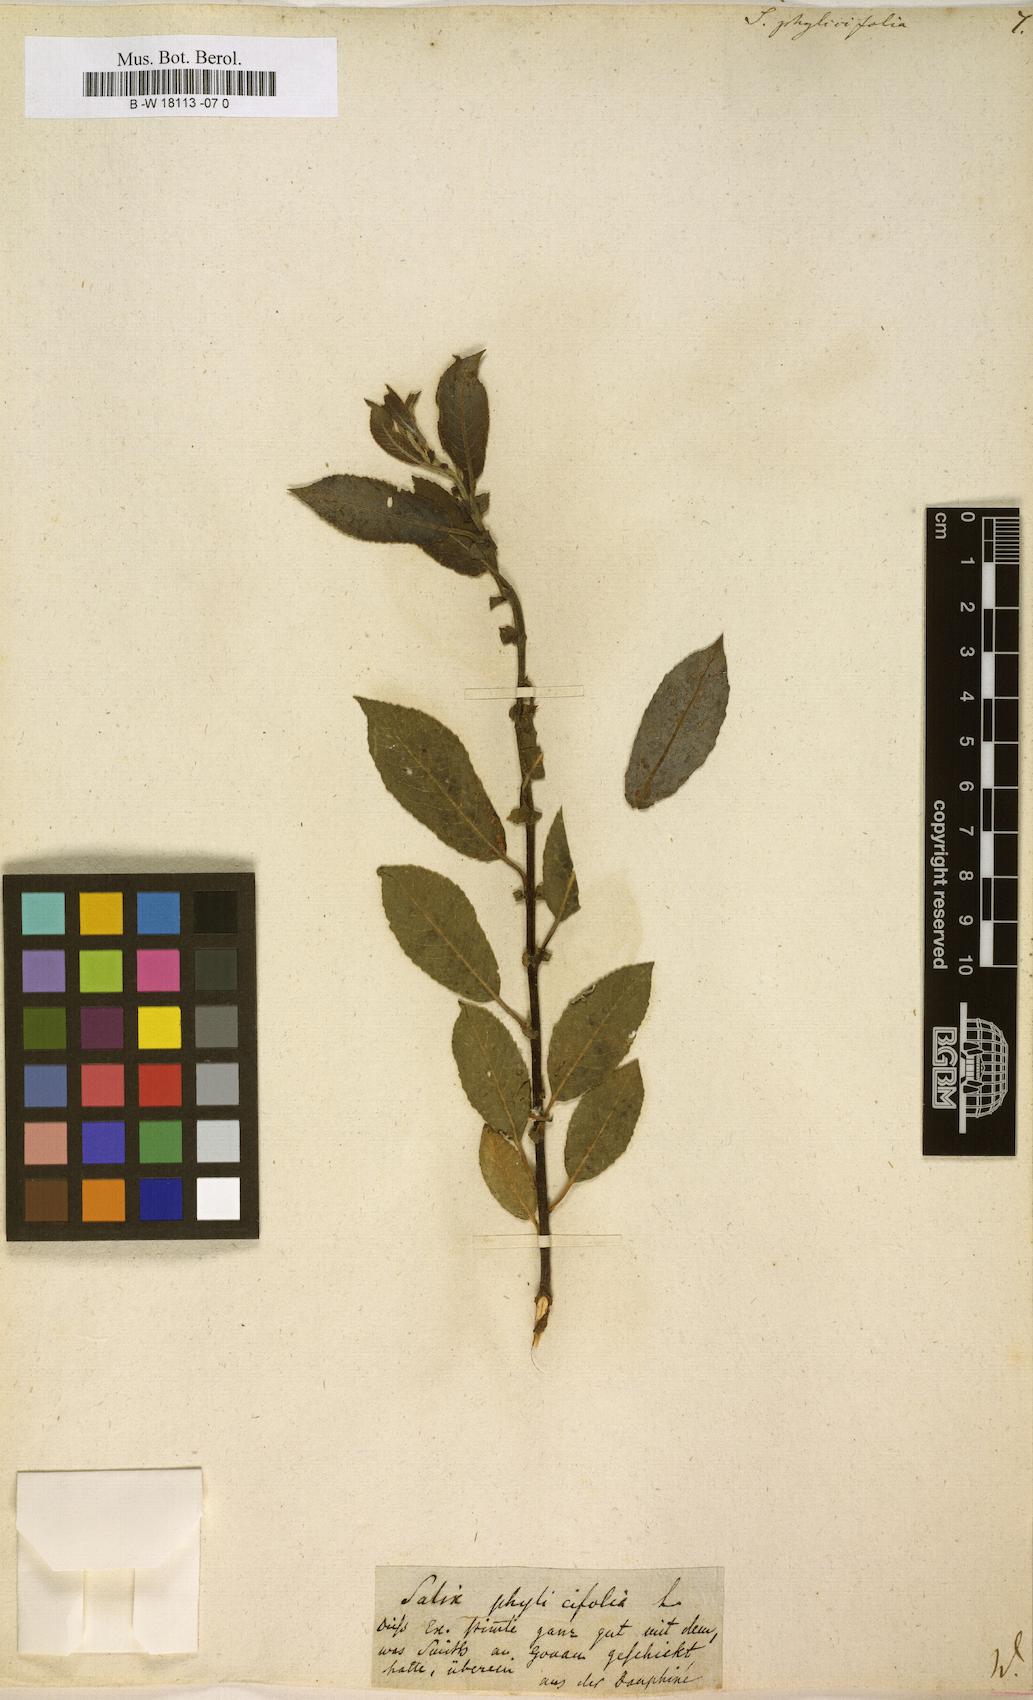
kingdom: Plantae
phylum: Tracheophyta
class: Magnoliopsida
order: Malpighiales
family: Salicaceae
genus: Salix
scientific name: Salix phylicifolia
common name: Tea-leaved willow
